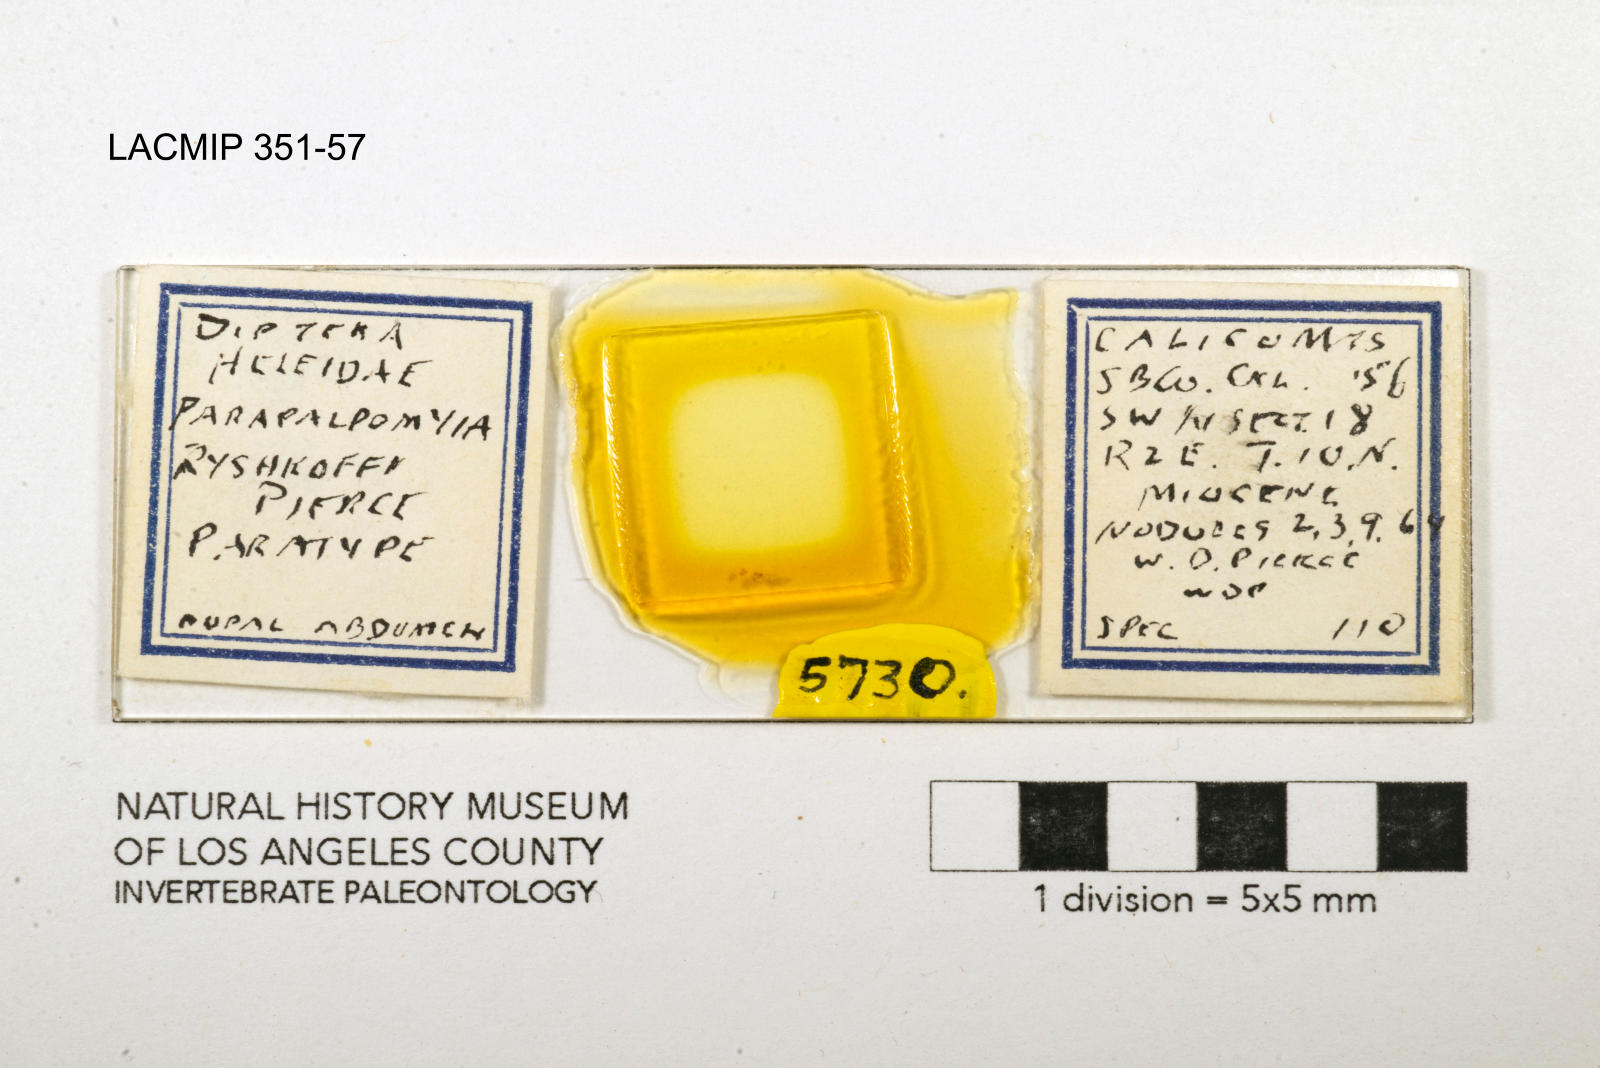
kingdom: Animalia
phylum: Arthropoda
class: Insecta
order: Diptera
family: Ceratopogonidae
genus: Palpomyia
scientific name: Palpomyia ryshkoffi
